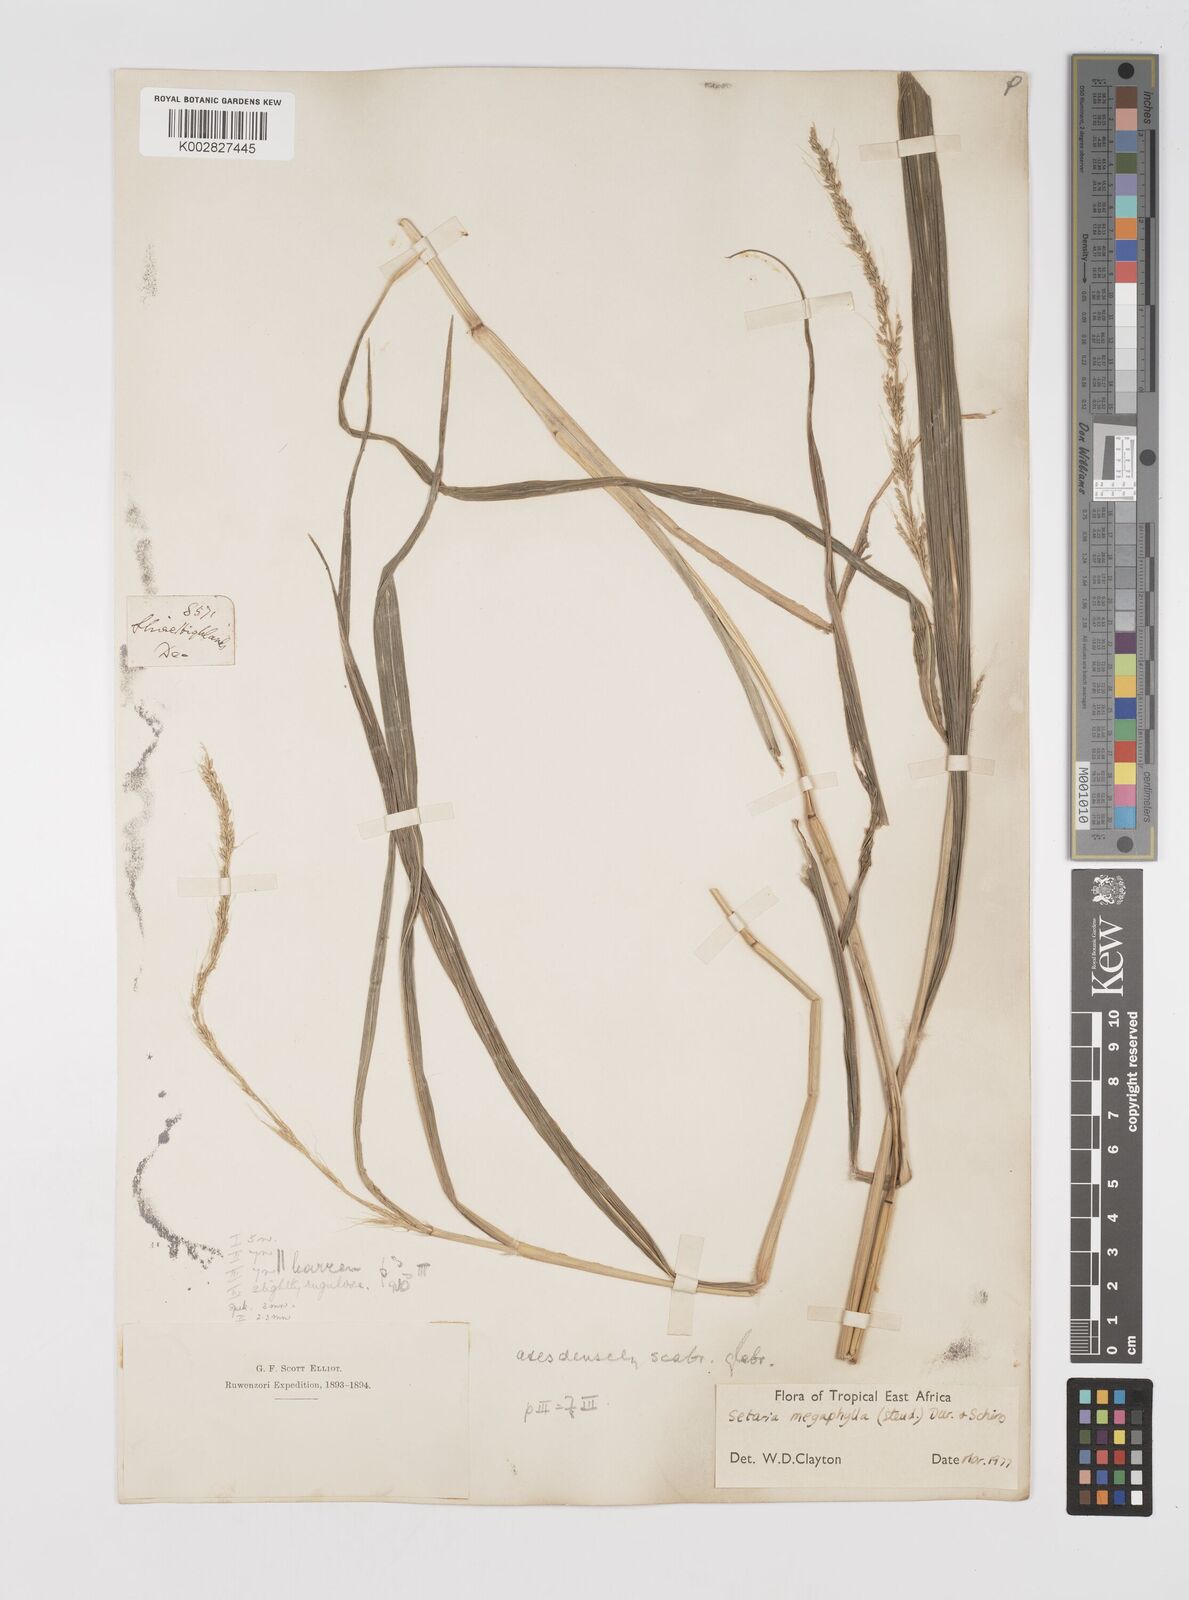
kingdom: Plantae
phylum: Tracheophyta
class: Liliopsida
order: Poales
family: Poaceae
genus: Setaria
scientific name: Setaria megaphylla
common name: Bigleaf bristlegrass
